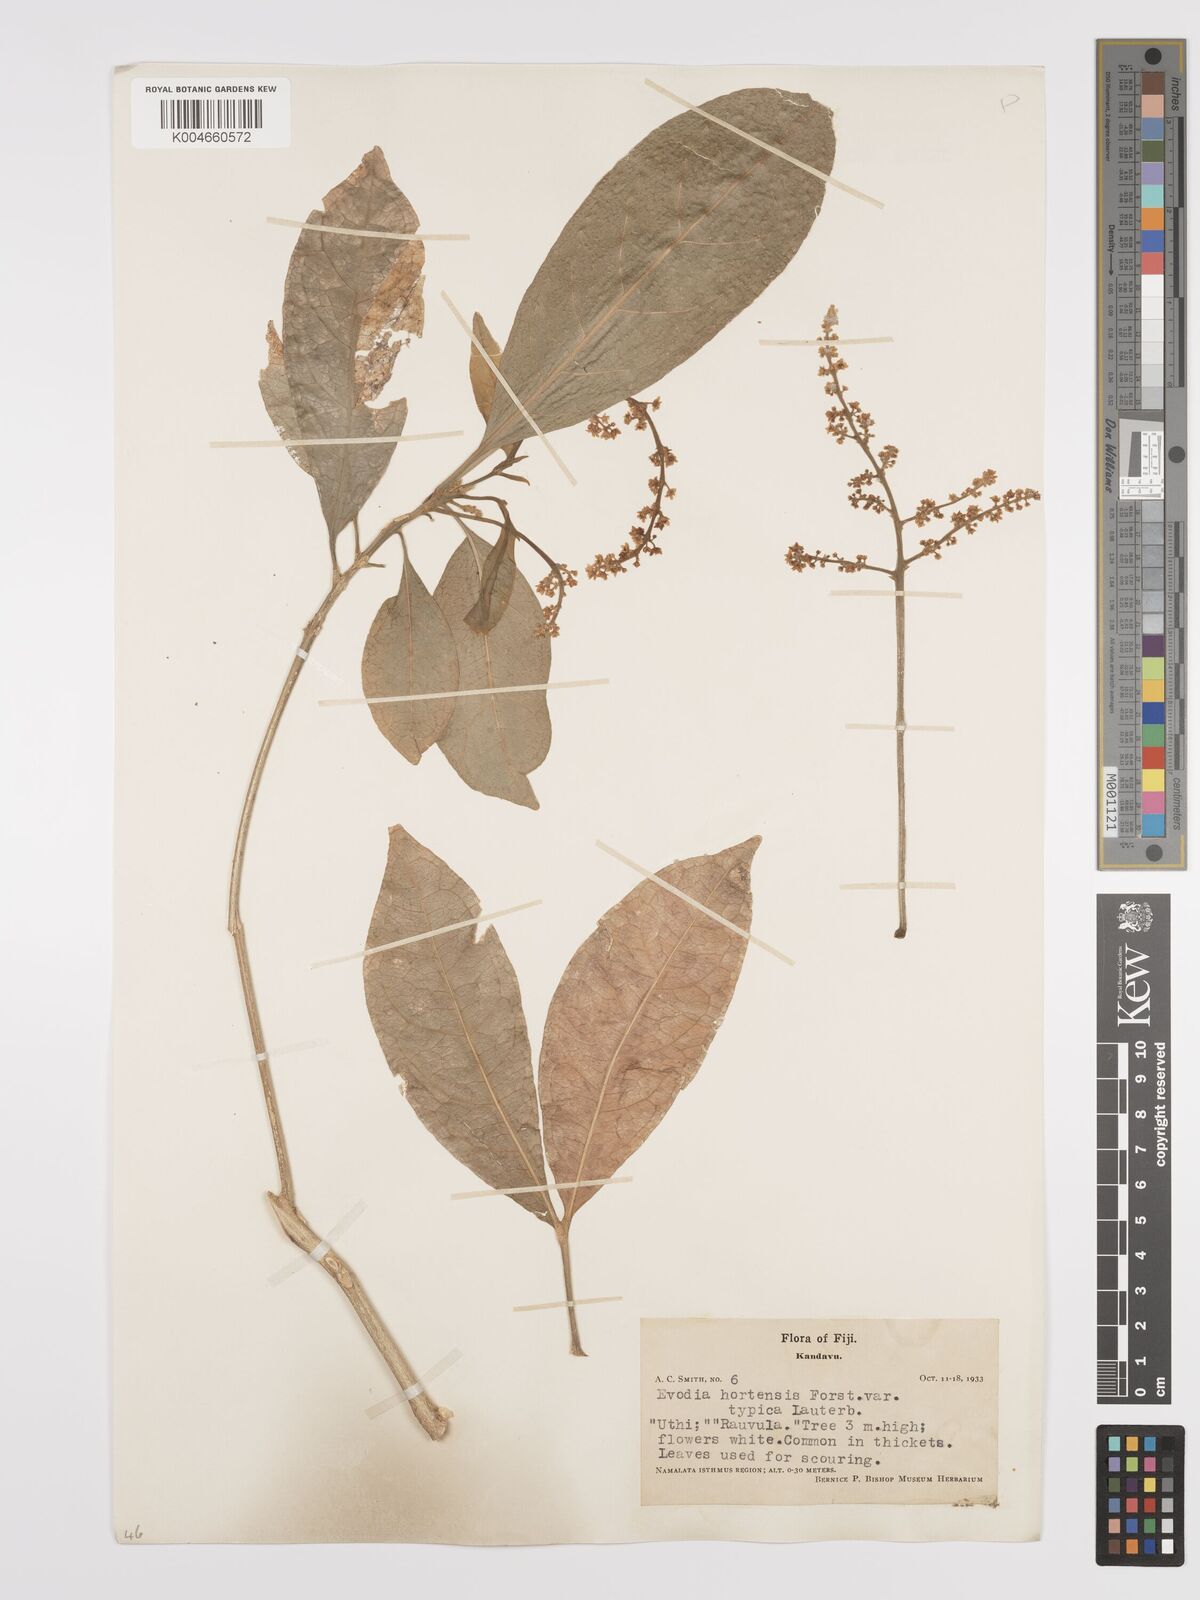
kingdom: Plantae
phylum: Tracheophyta
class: Magnoliopsida
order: Sapindales
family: Rutaceae
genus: Euodia
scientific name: Euodia hortensis
